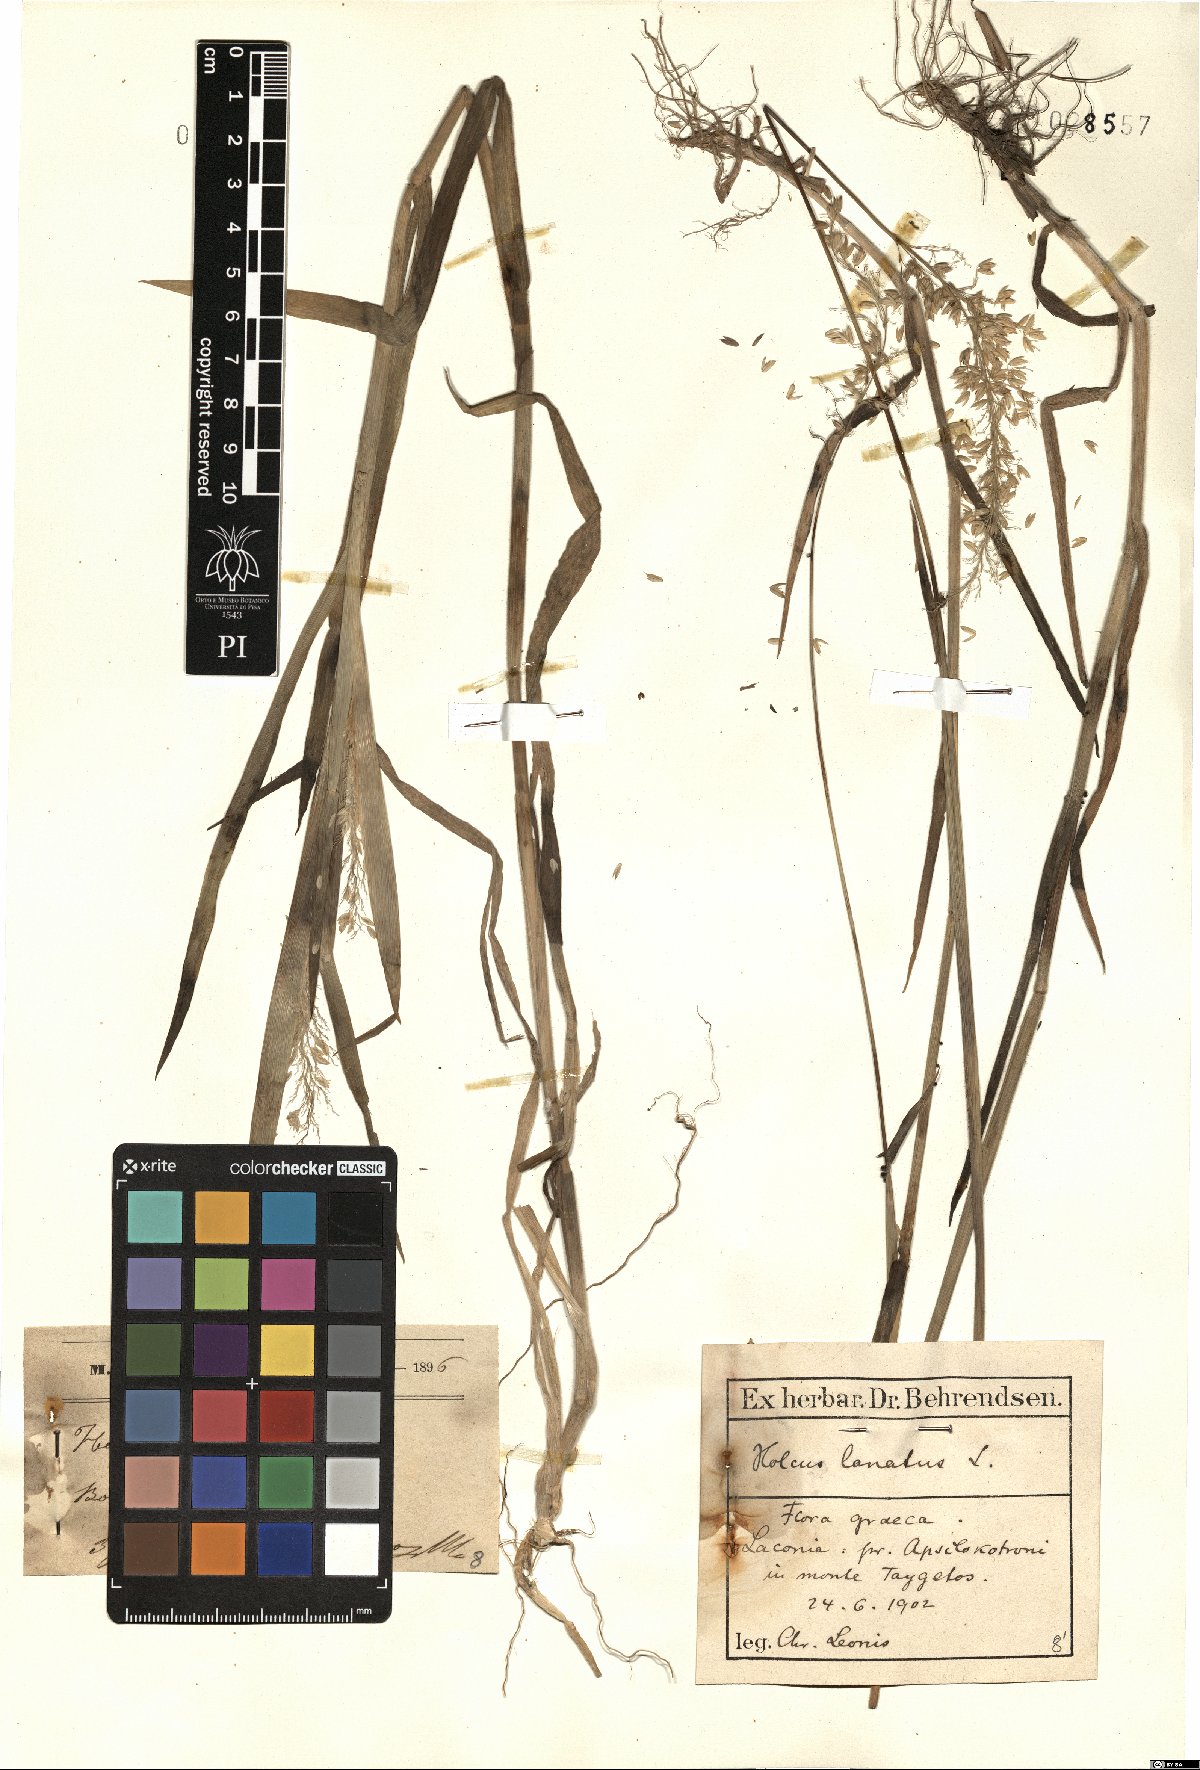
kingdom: Plantae
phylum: Tracheophyta
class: Liliopsida
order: Poales
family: Poaceae
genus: Holcus
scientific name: Holcus lanatus
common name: Yorkshire-fog
